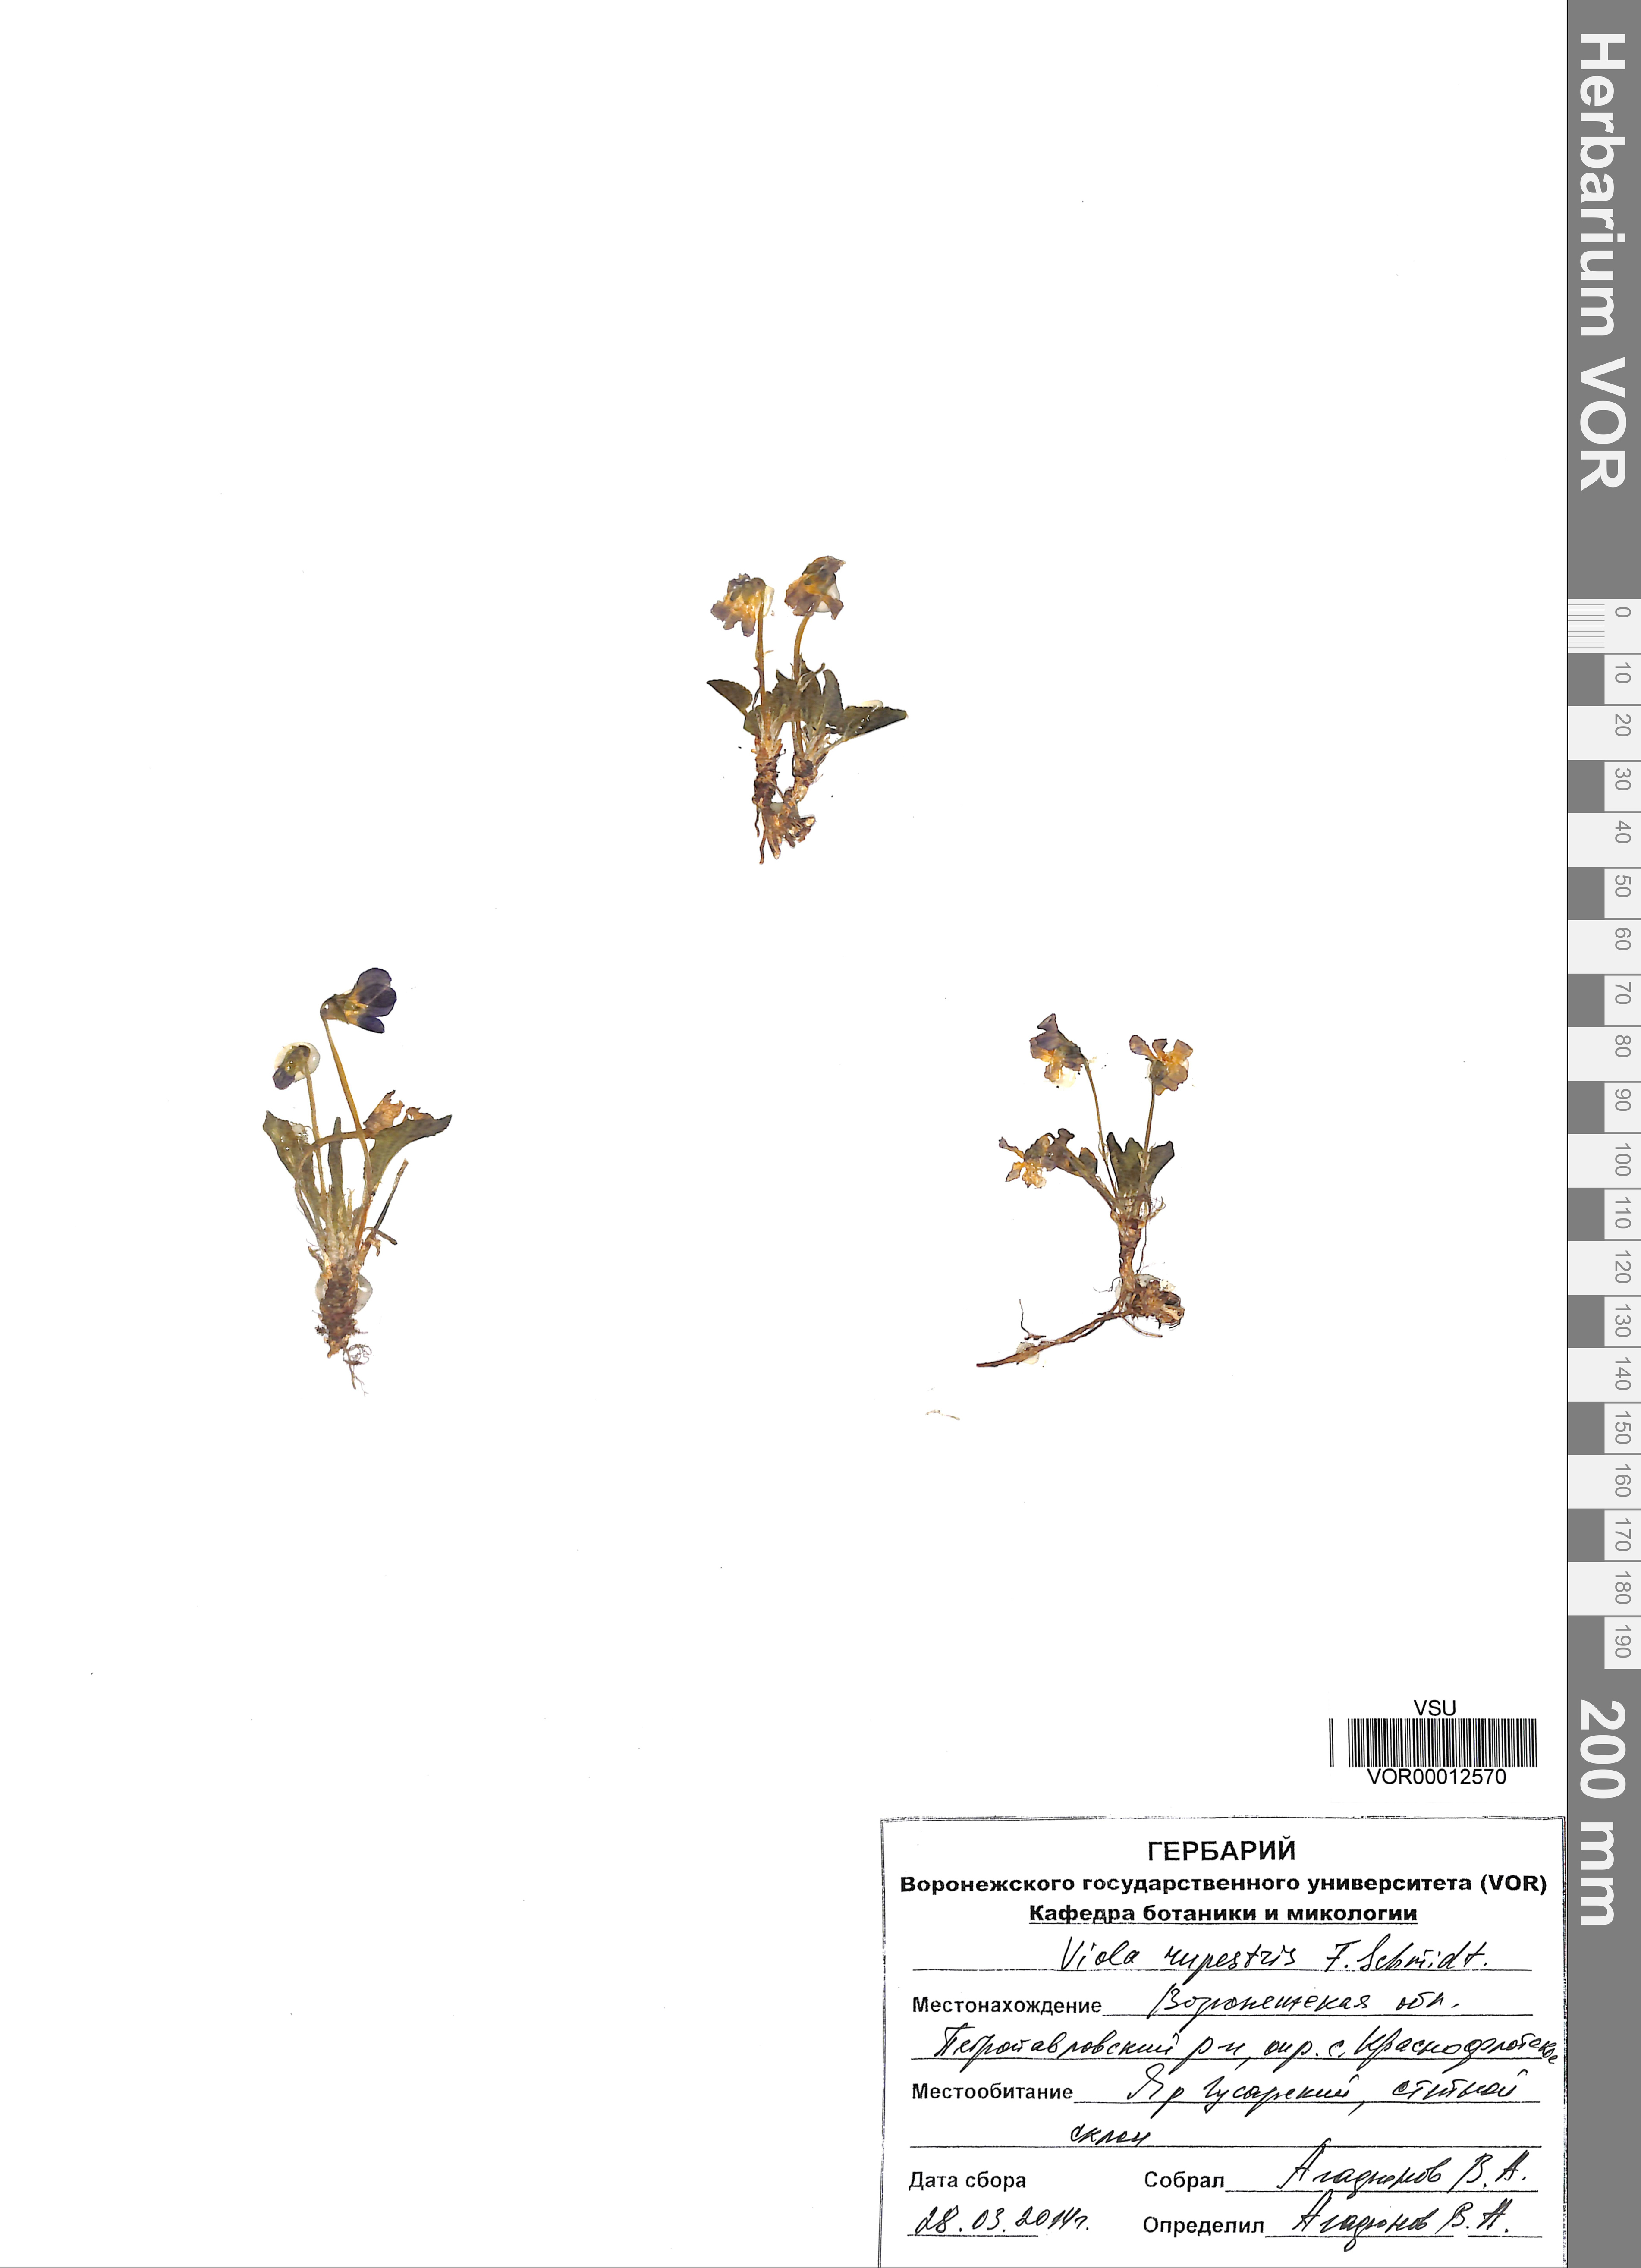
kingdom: Plantae
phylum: Tracheophyta
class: Magnoliopsida
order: Malpighiales
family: Violaceae
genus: Viola
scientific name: Viola rupestris
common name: Teesdale violet
